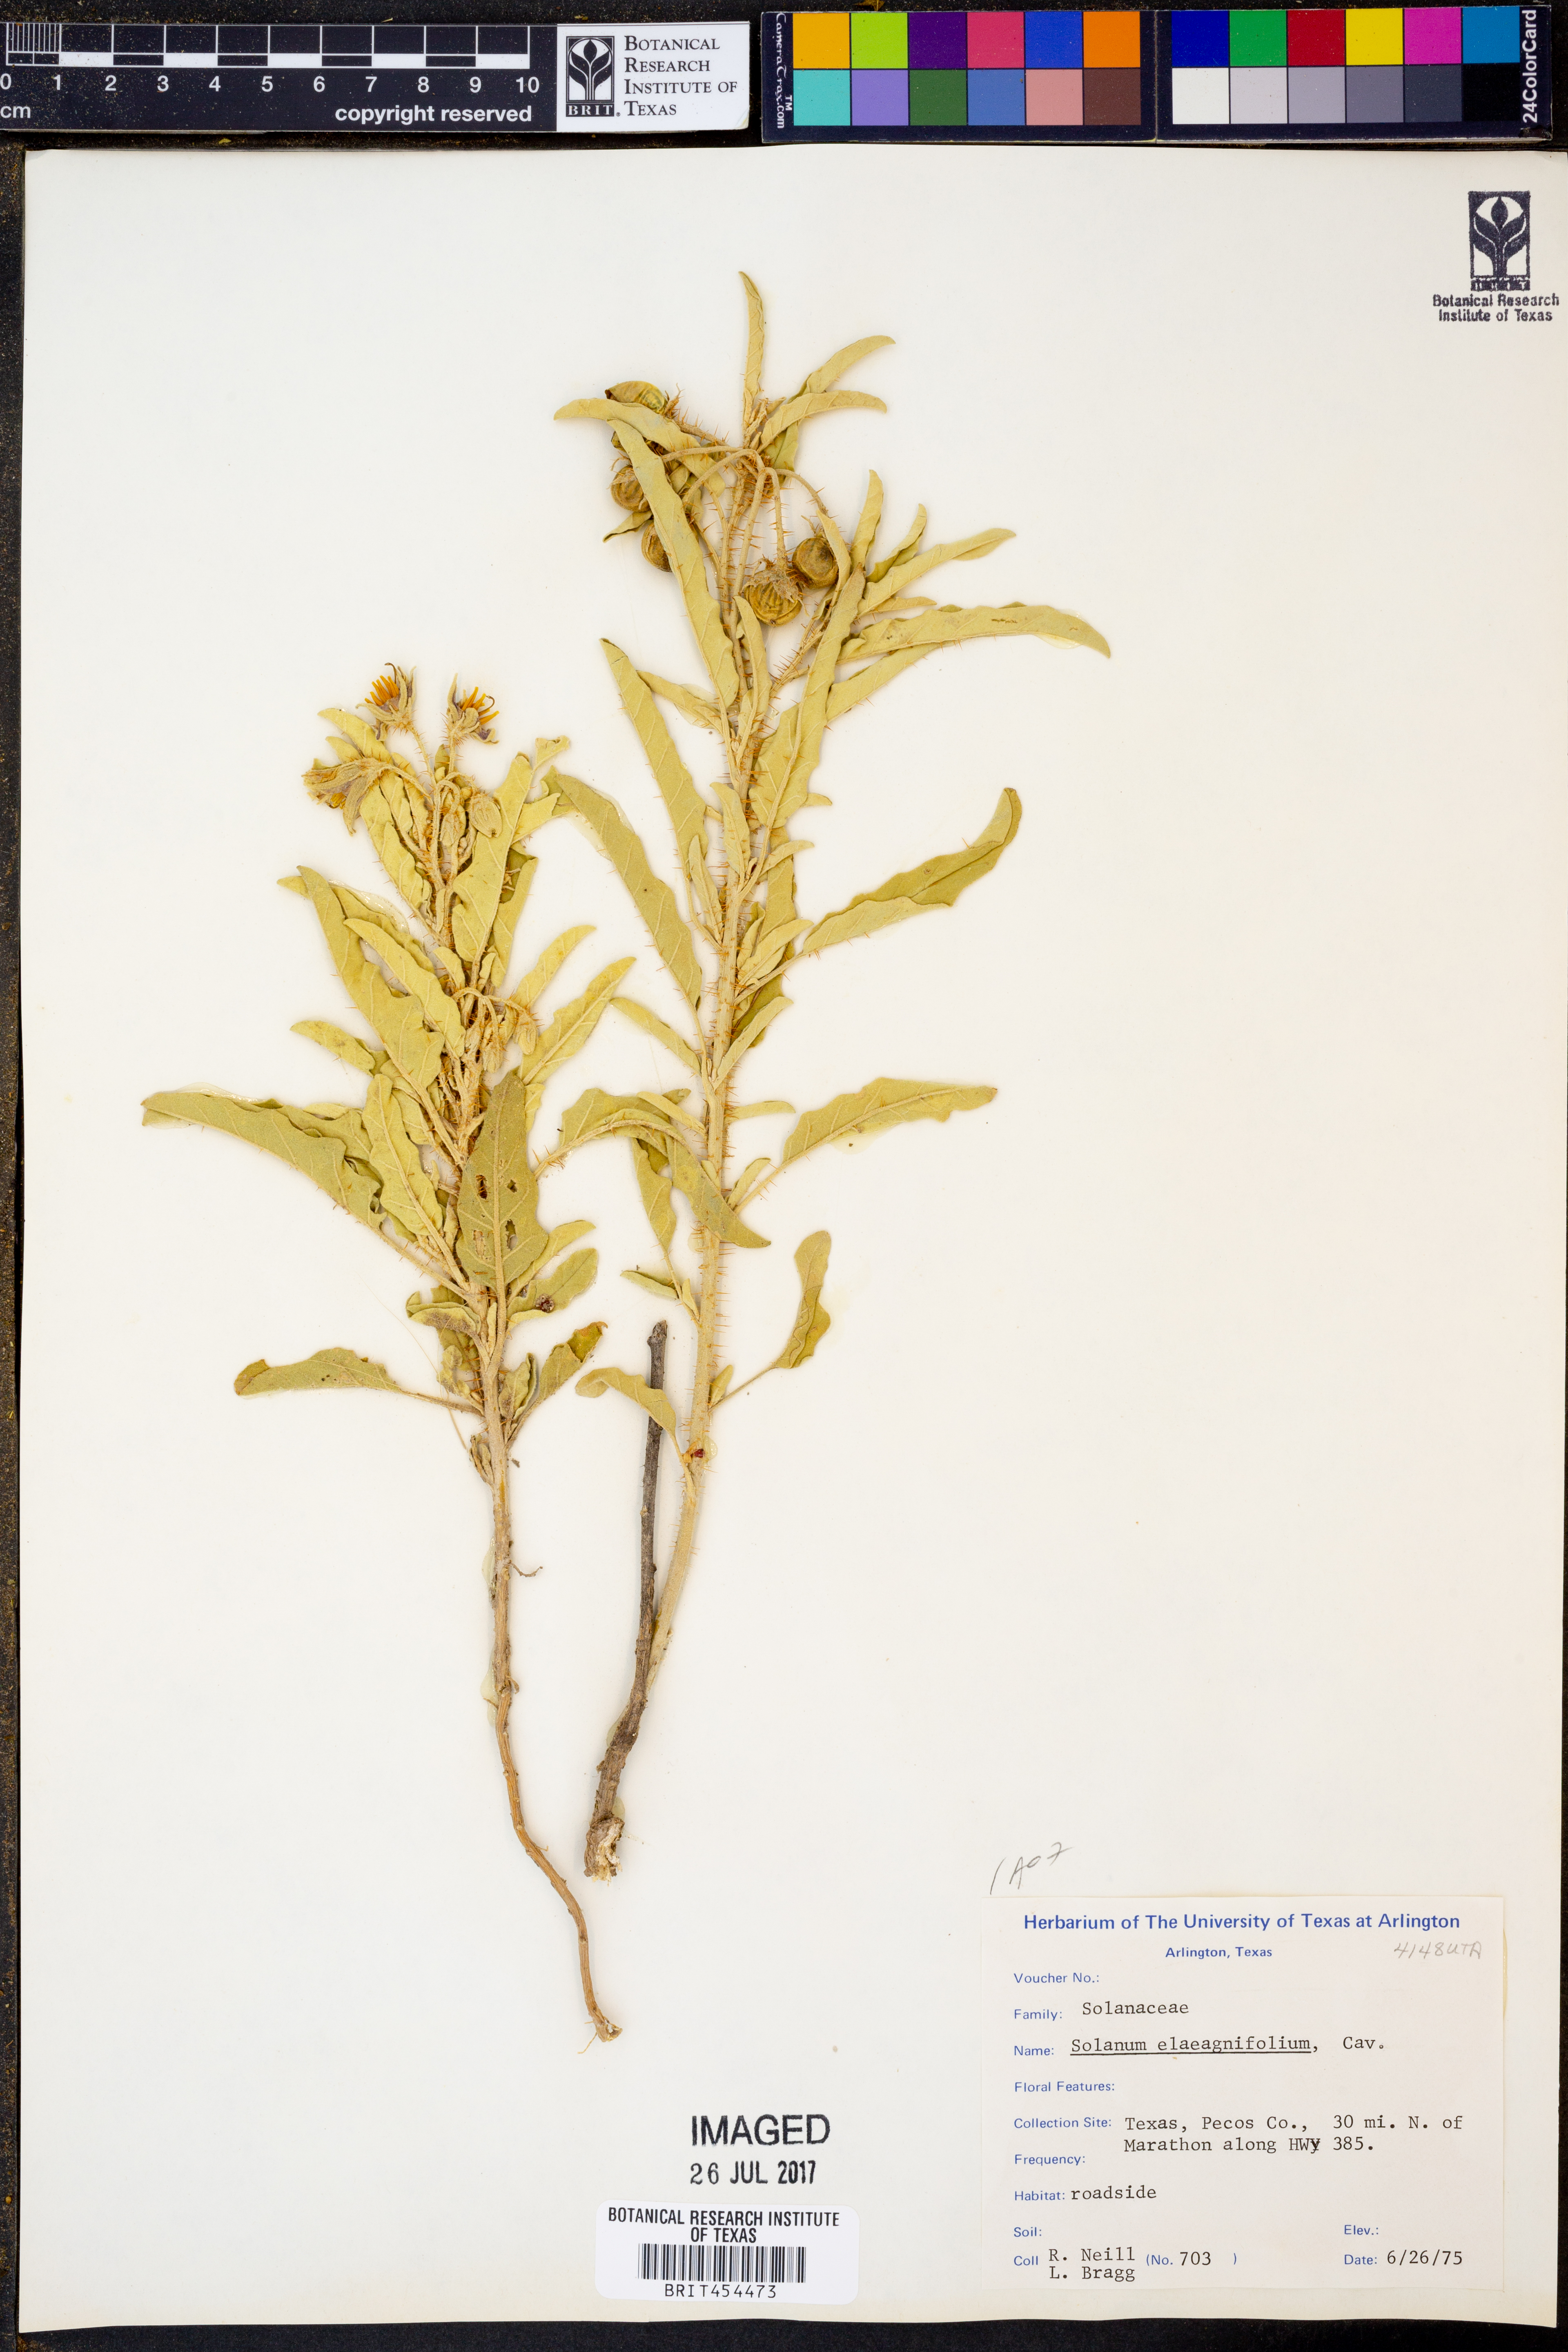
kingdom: Plantae
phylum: Tracheophyta
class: Magnoliopsida
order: Solanales
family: Solanaceae
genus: Solanum
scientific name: Solanum elaeagnifolium
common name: Silverleaf nightshade
